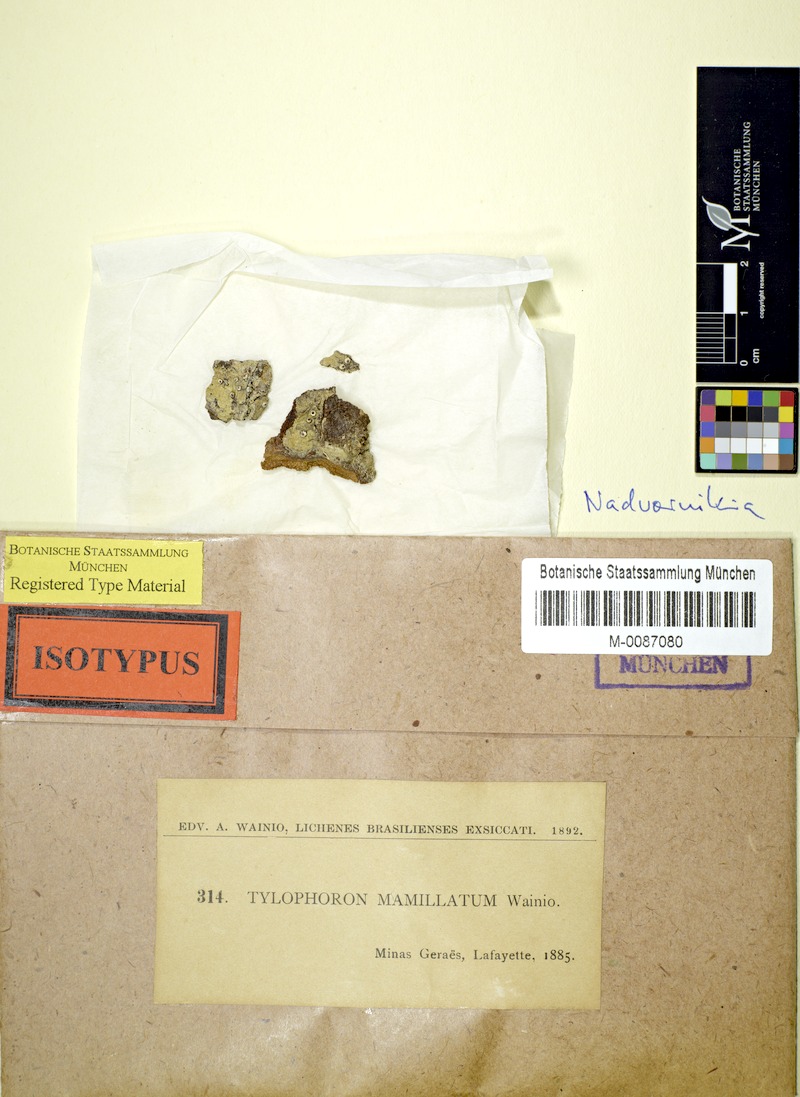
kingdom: Fungi
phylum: Ascomycota
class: Arthoniomycetes
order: Arthoniales
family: Arthoniaceae
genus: Tylophoron
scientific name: Tylophoron
